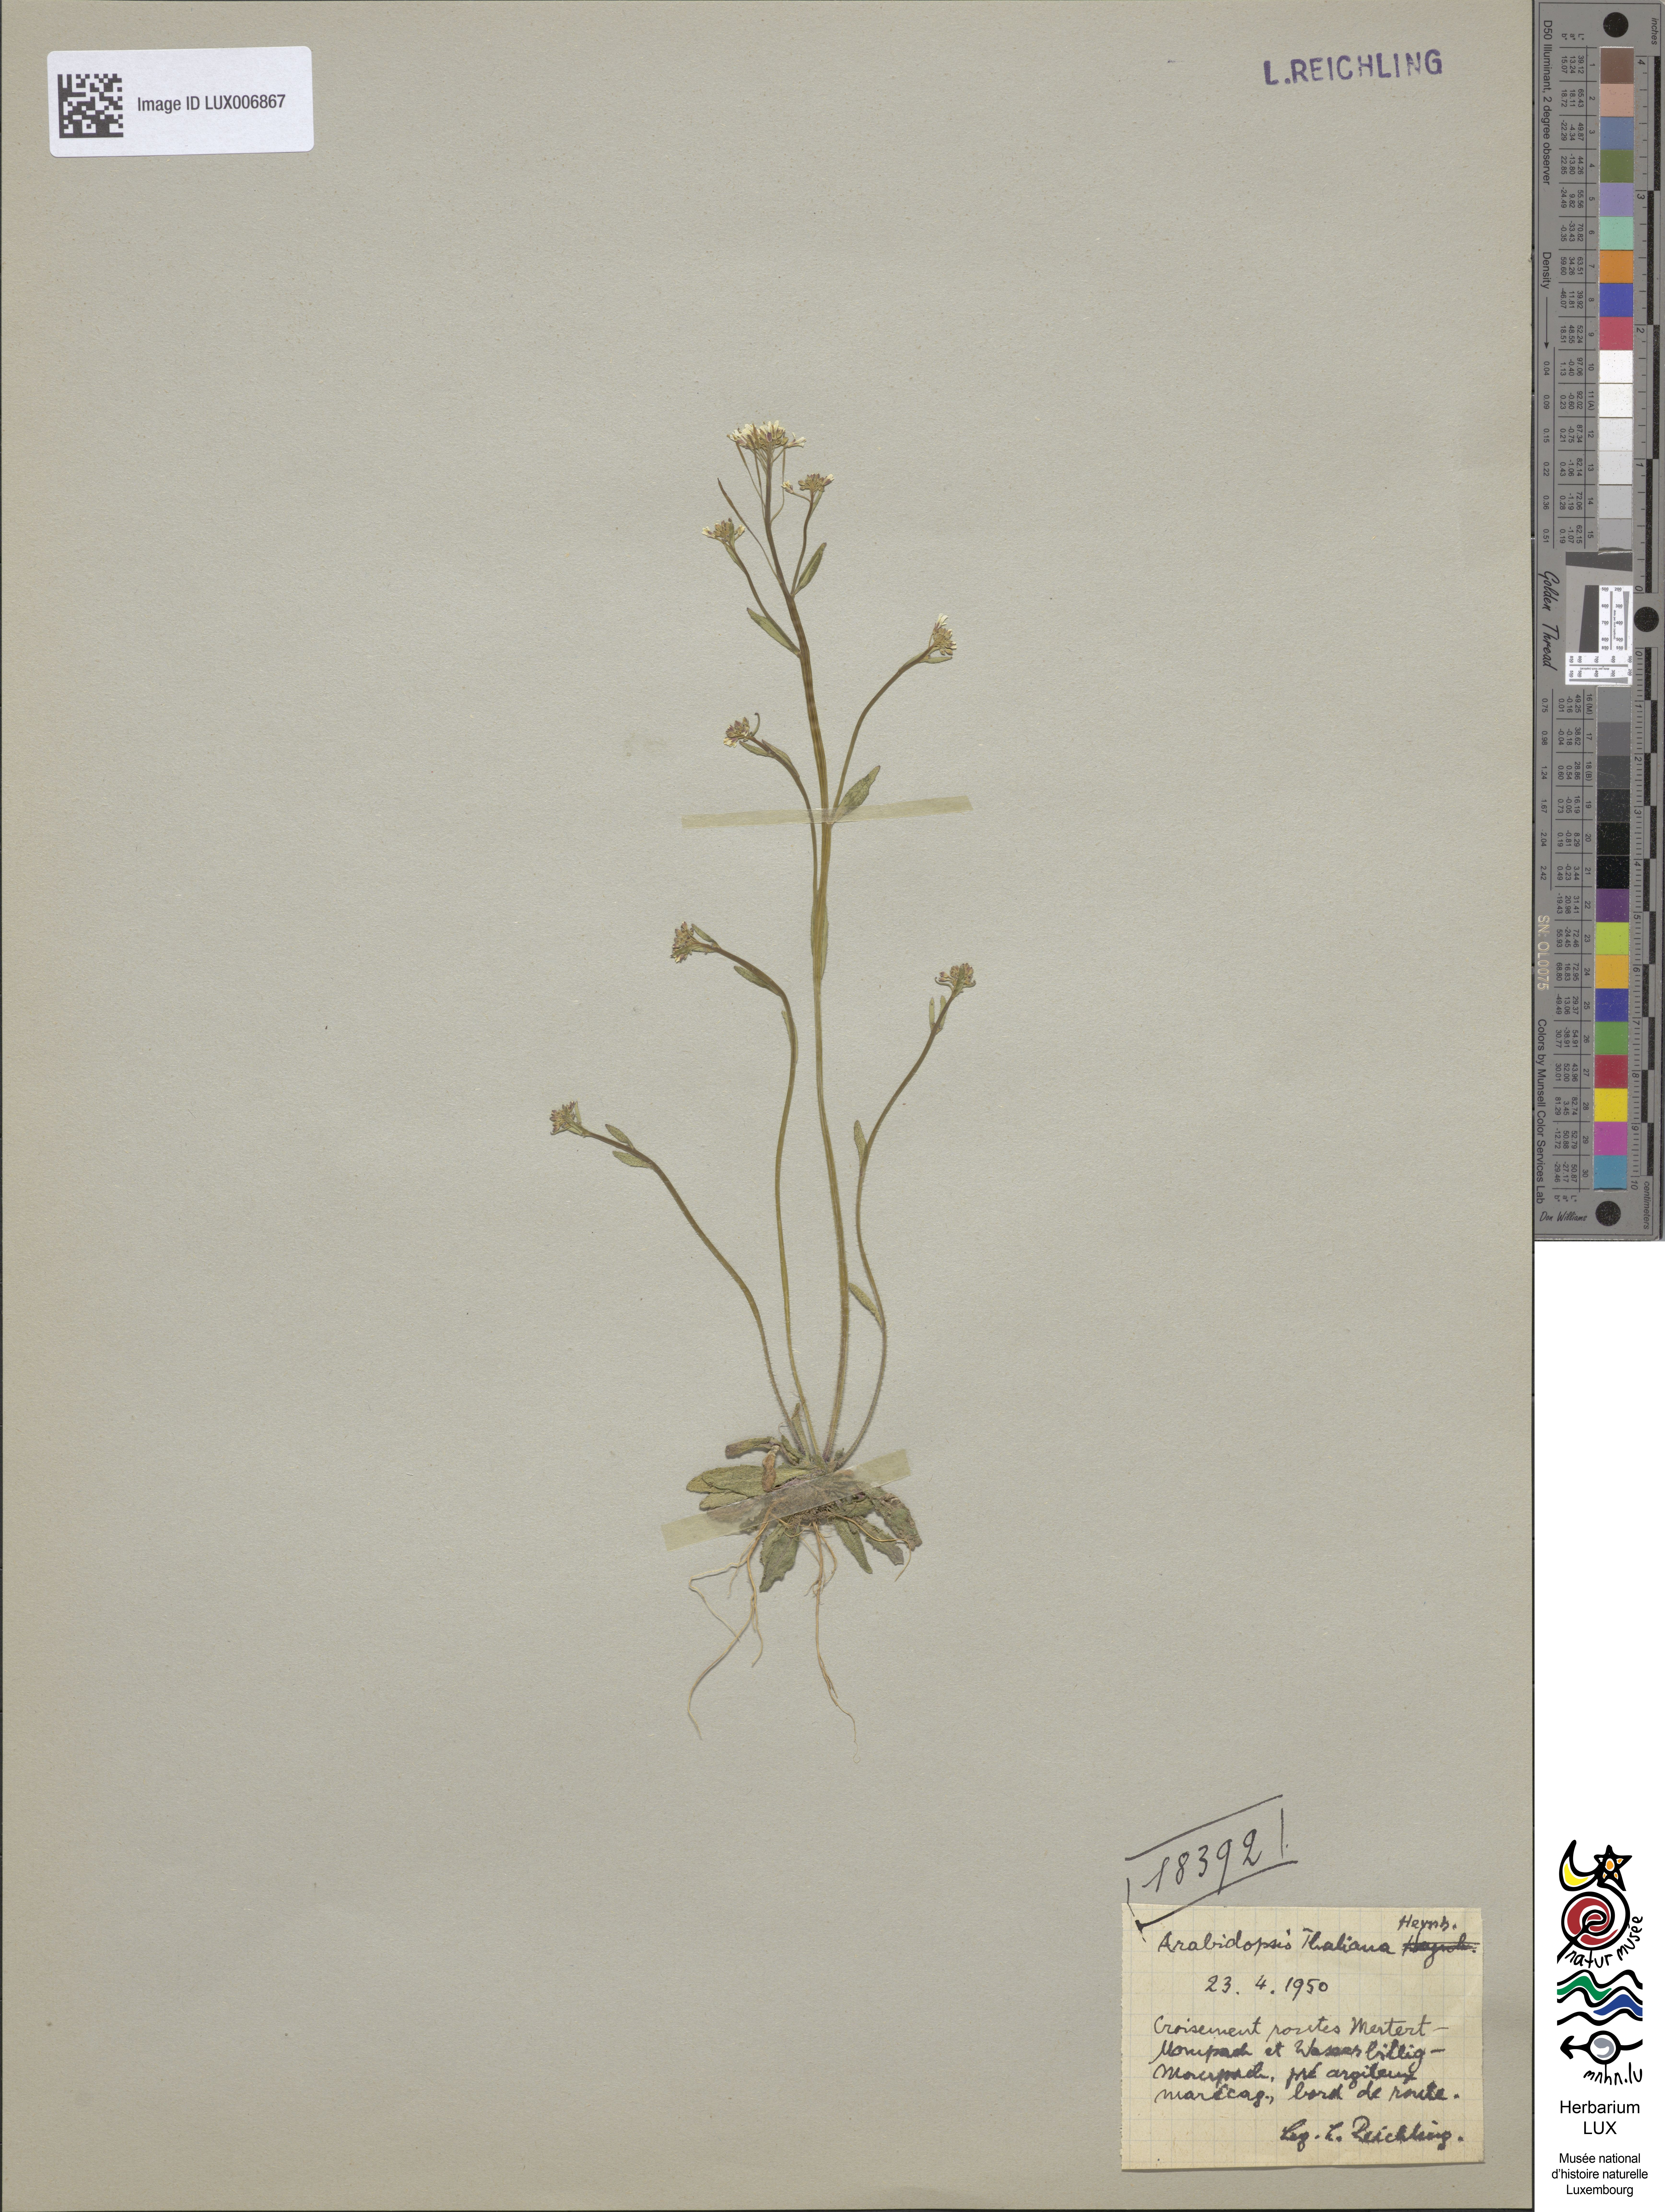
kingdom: Plantae
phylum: Tracheophyta
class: Magnoliopsida
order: Brassicales
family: Brassicaceae
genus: Arabidopsis
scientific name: Arabidopsis thaliana
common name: Thale cress
